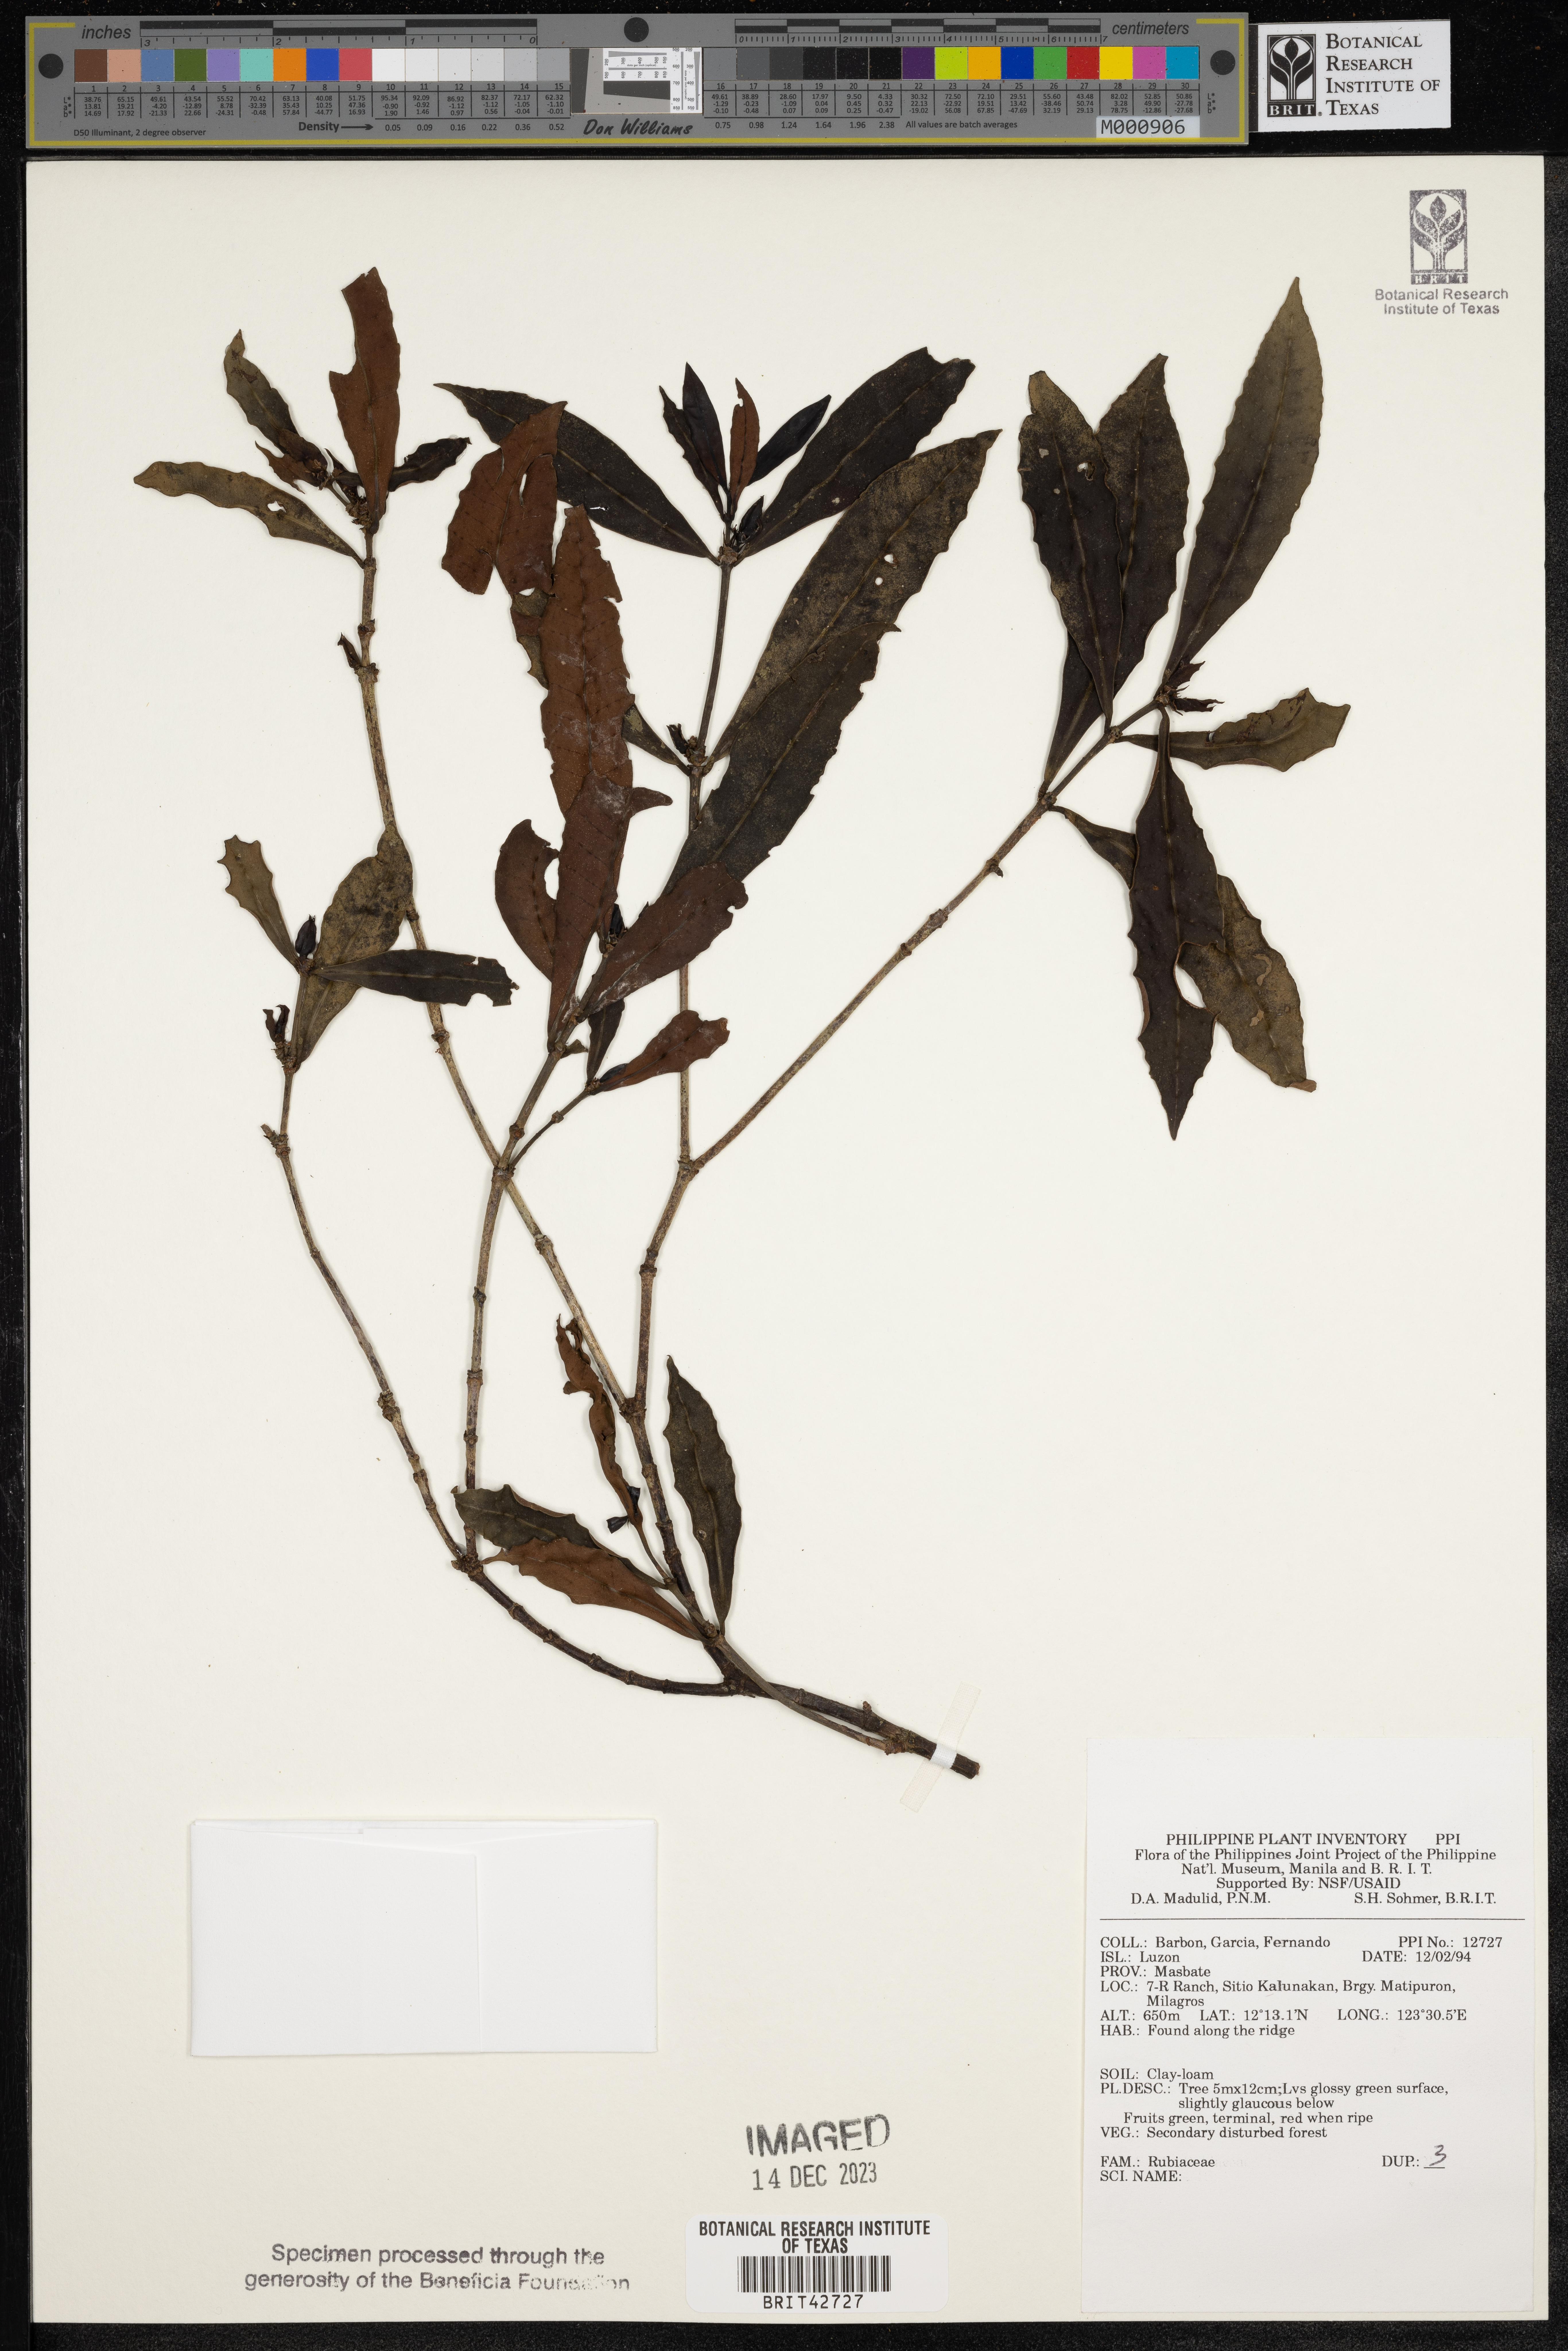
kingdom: Plantae
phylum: Tracheophyta
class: Magnoliopsida
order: Gentianales
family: Rubiaceae
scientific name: Rubiaceae
